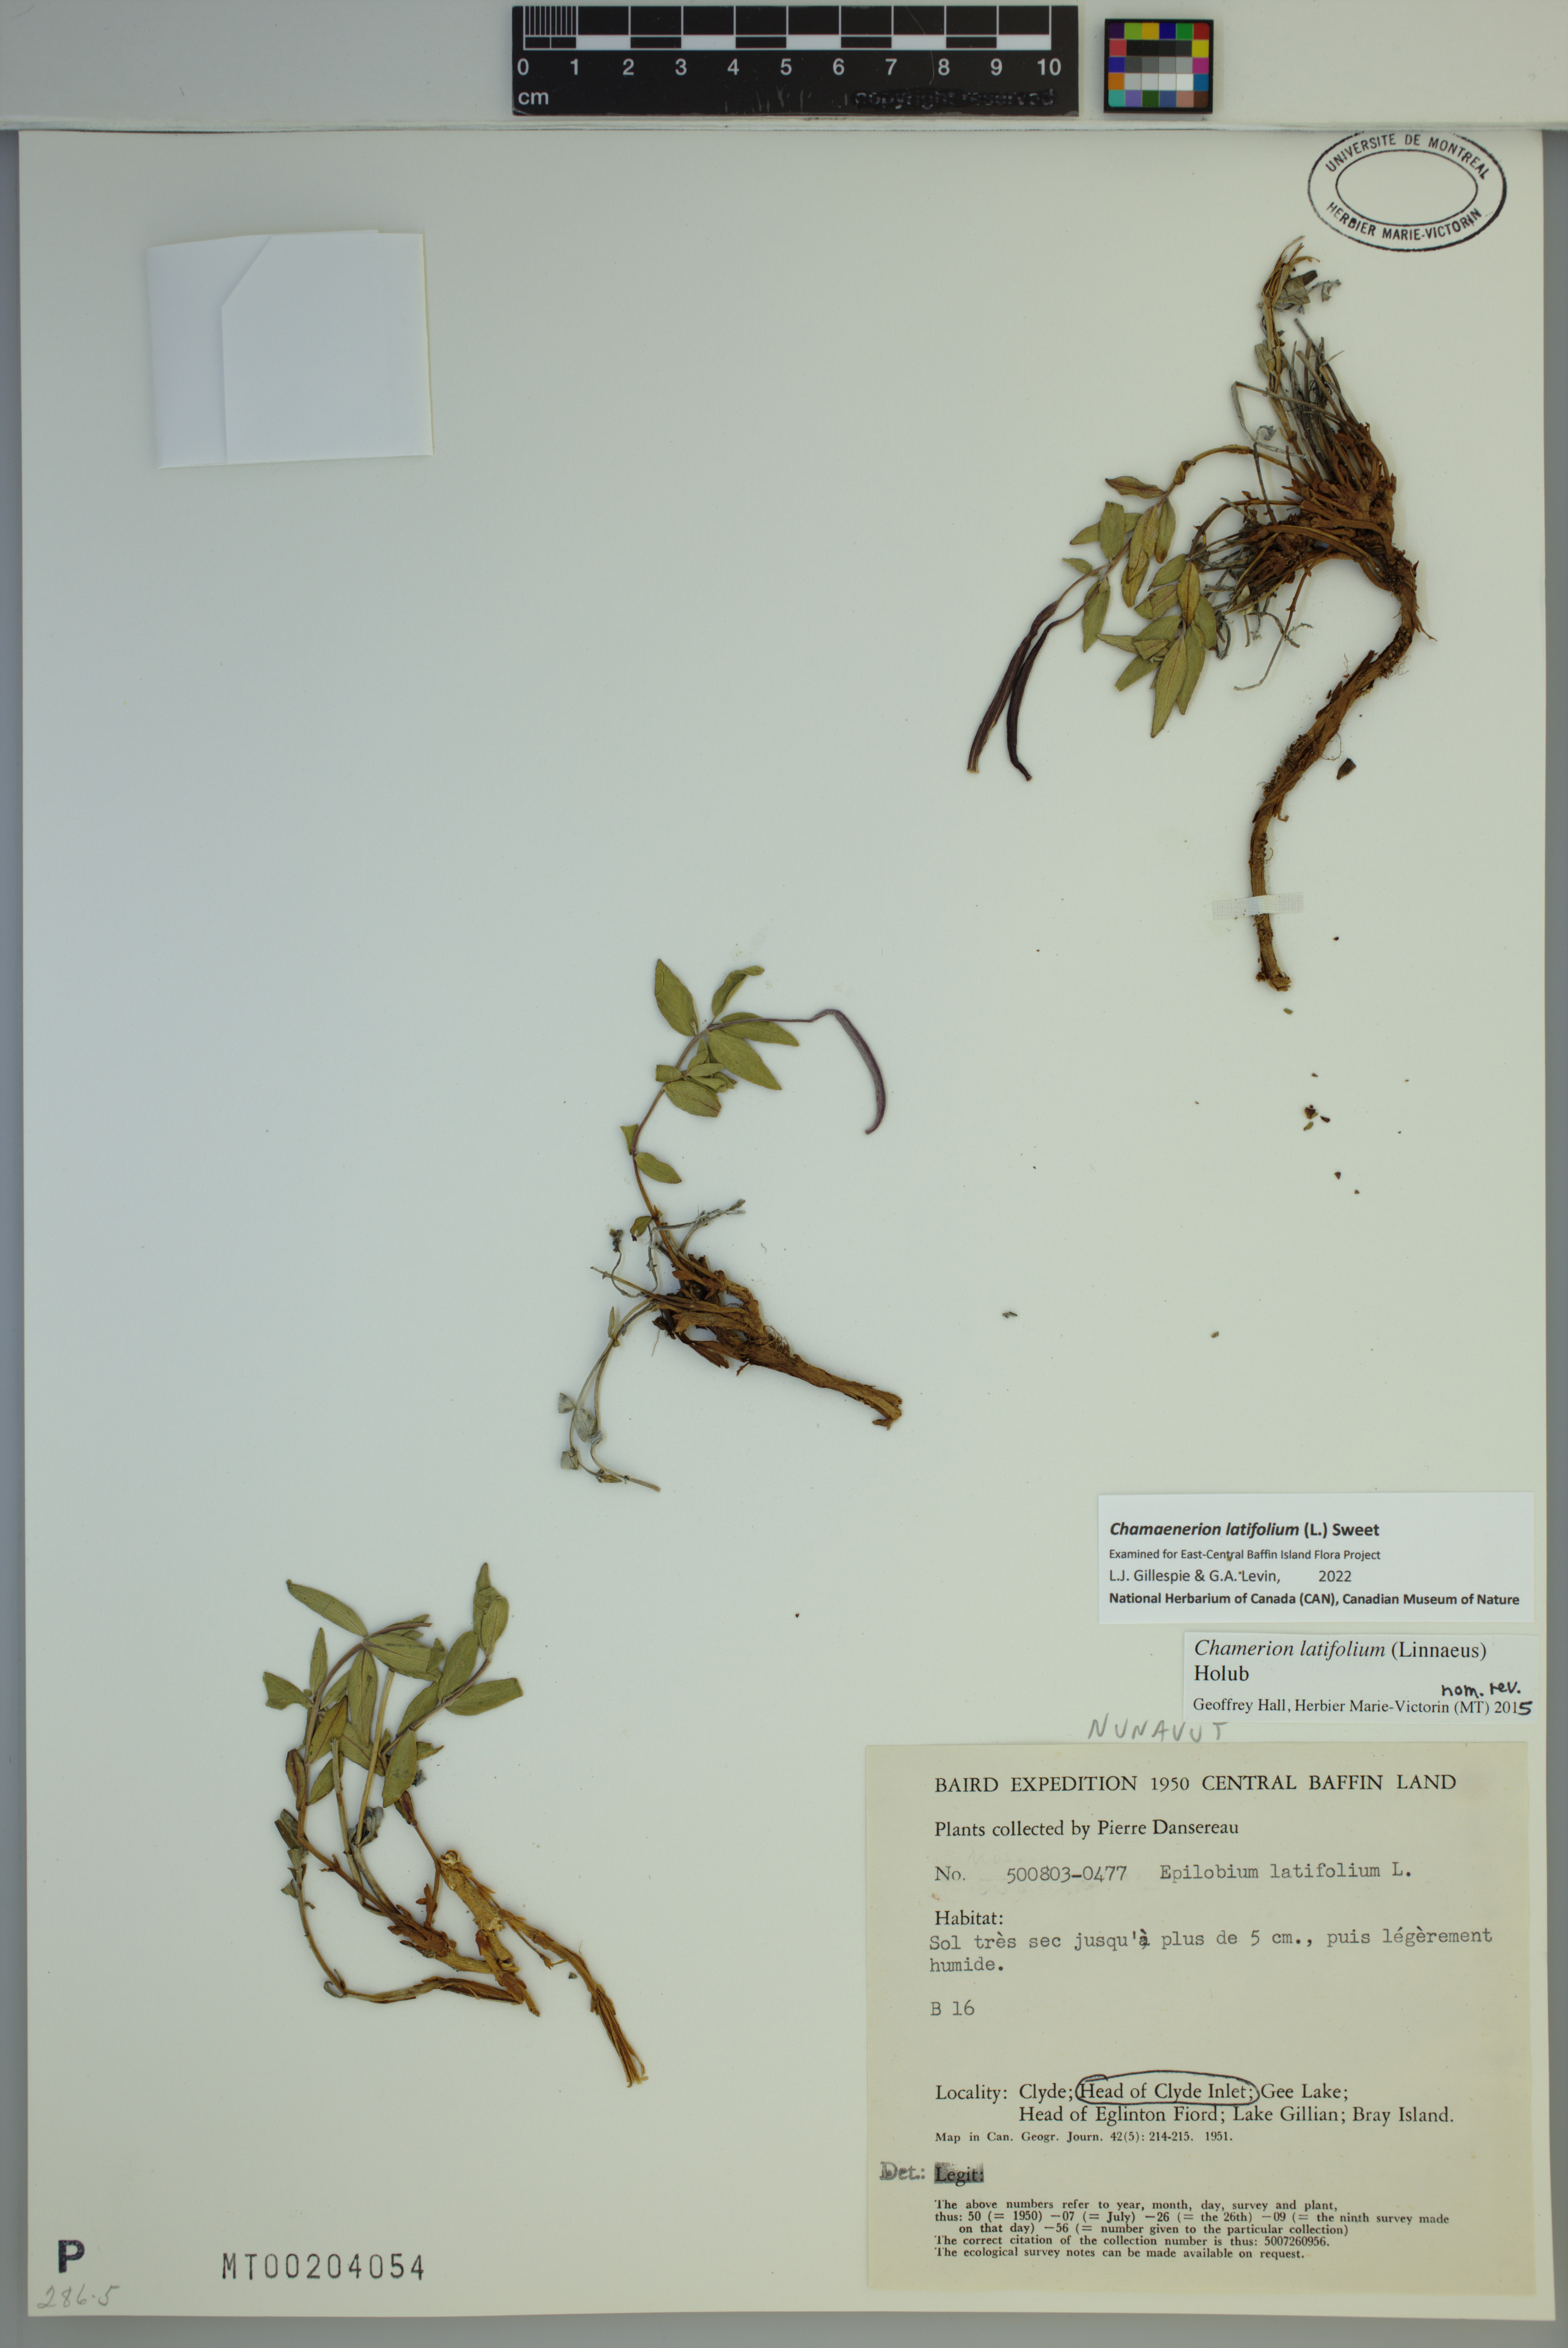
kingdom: Plantae
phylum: Tracheophyta
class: Magnoliopsida
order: Myrtales
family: Onagraceae
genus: Chamaenerion
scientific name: Chamaenerion latifolium
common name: Dwarf fireweed
